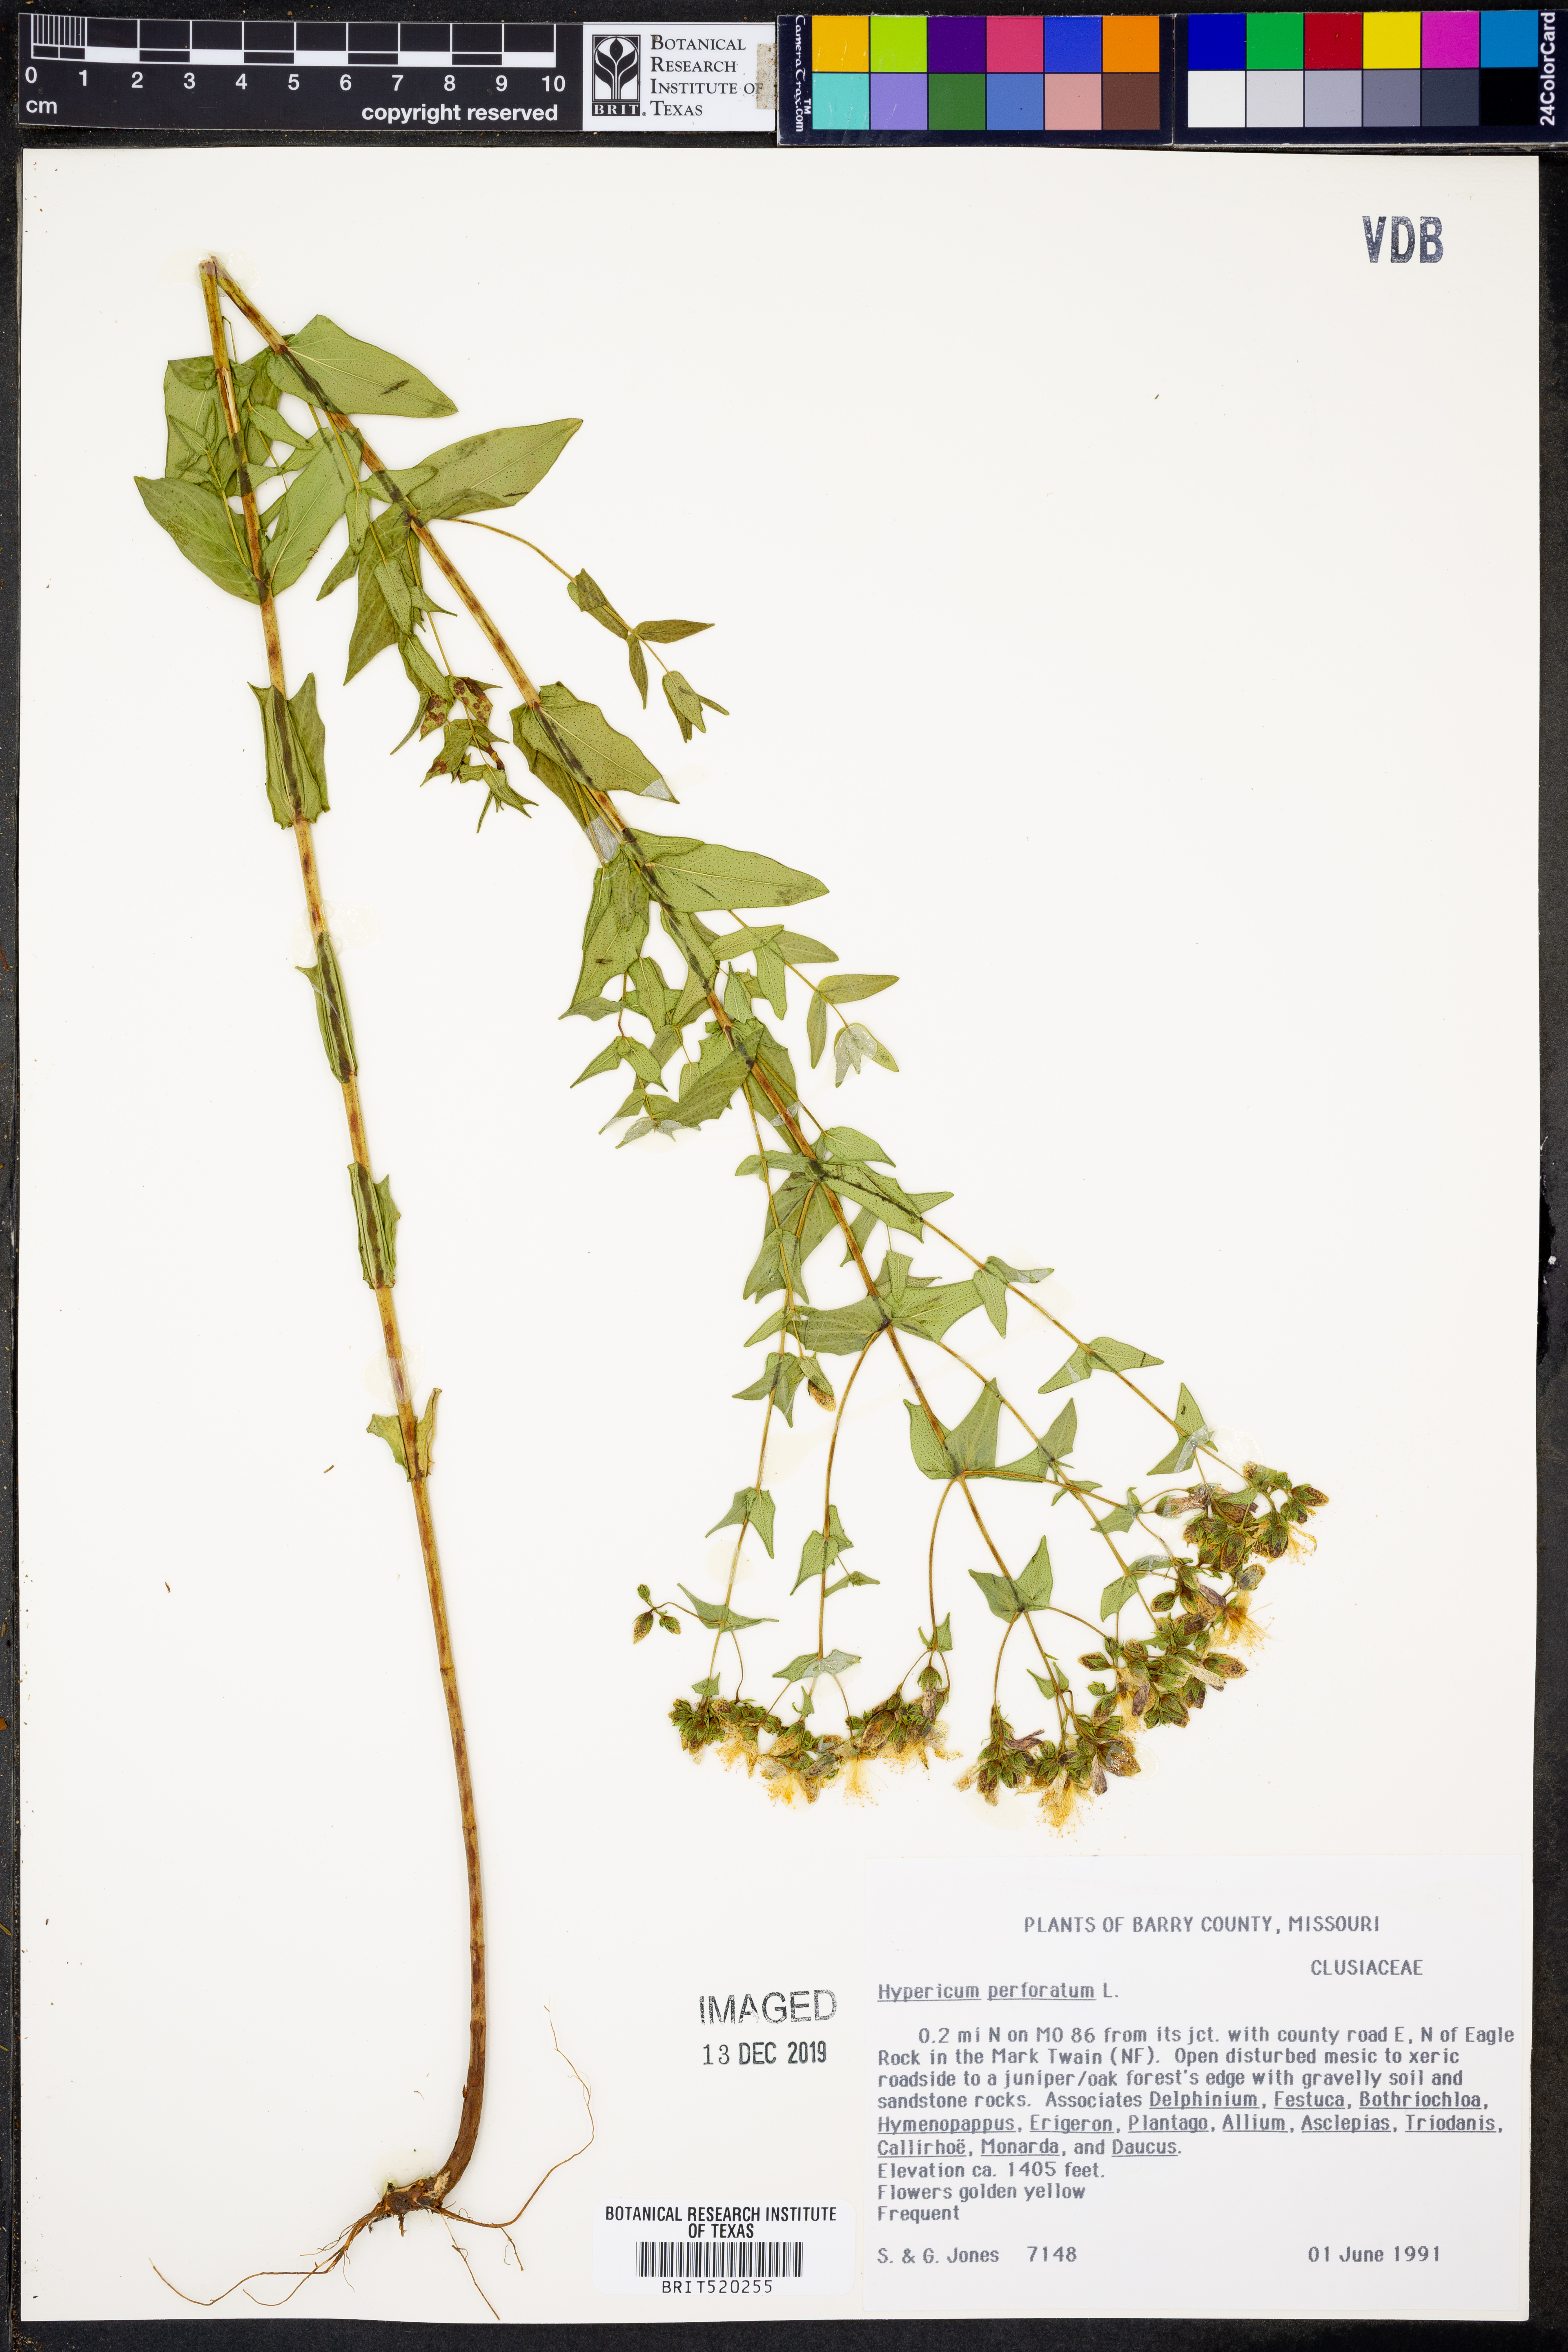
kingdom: Plantae
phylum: Tracheophyta
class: Magnoliopsida
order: Malpighiales
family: Hypericaceae
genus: Hypericum
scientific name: Hypericum perforatum
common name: Common st. johnswort
